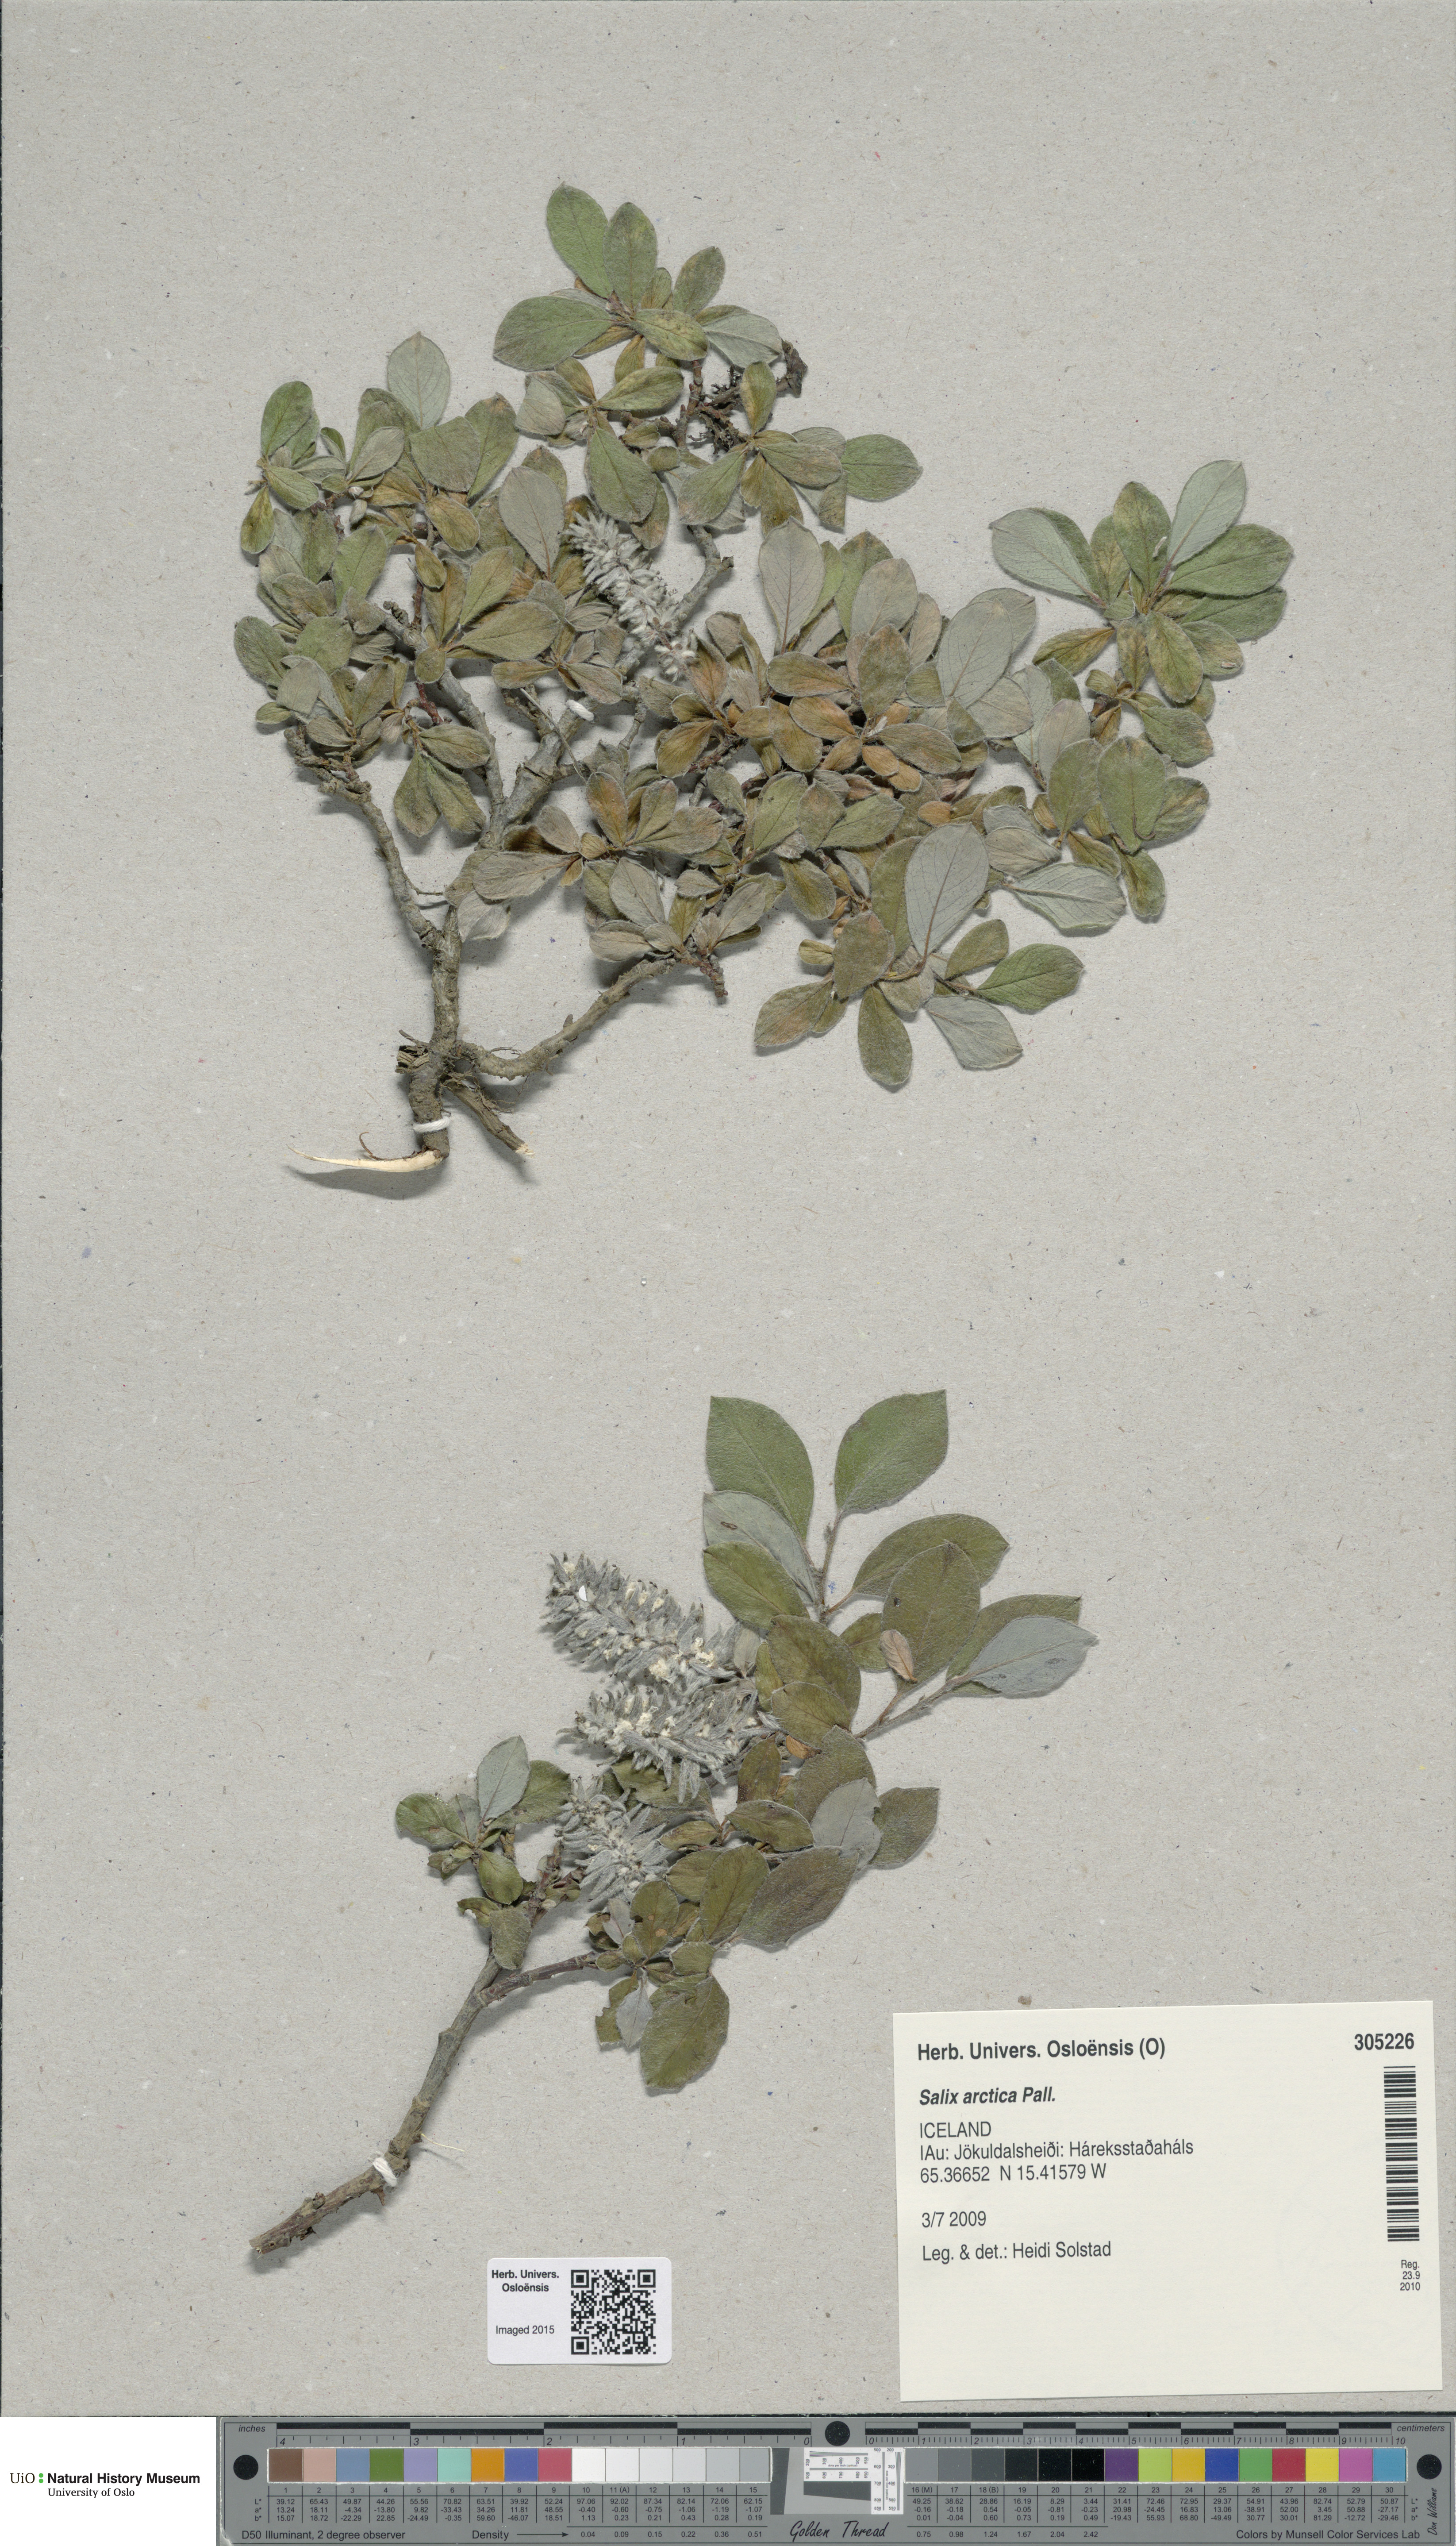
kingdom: Plantae
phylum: Tracheophyta
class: Magnoliopsida
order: Malpighiales
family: Salicaceae
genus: Salix
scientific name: Salix arctica
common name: Arctic willow
